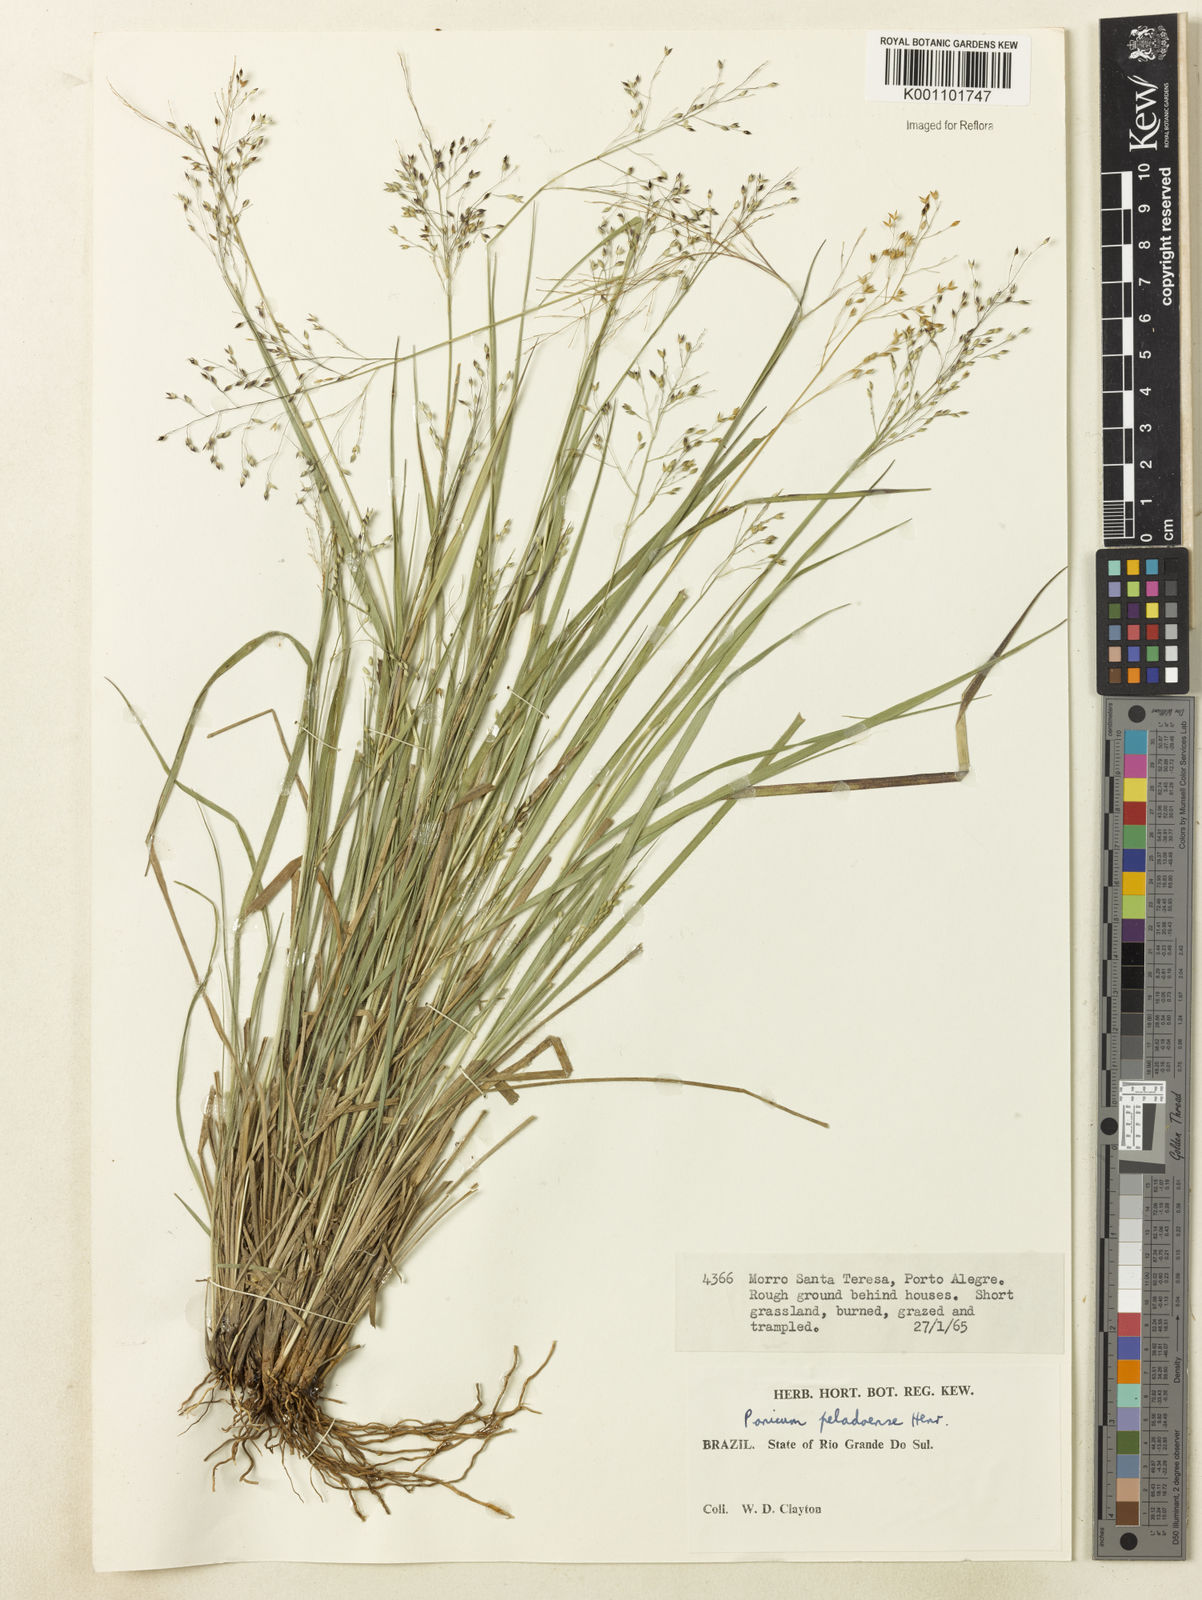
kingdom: Plantae
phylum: Tracheophyta
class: Liliopsida
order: Poales
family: Poaceae
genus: Panicum
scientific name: Panicum peladoense
